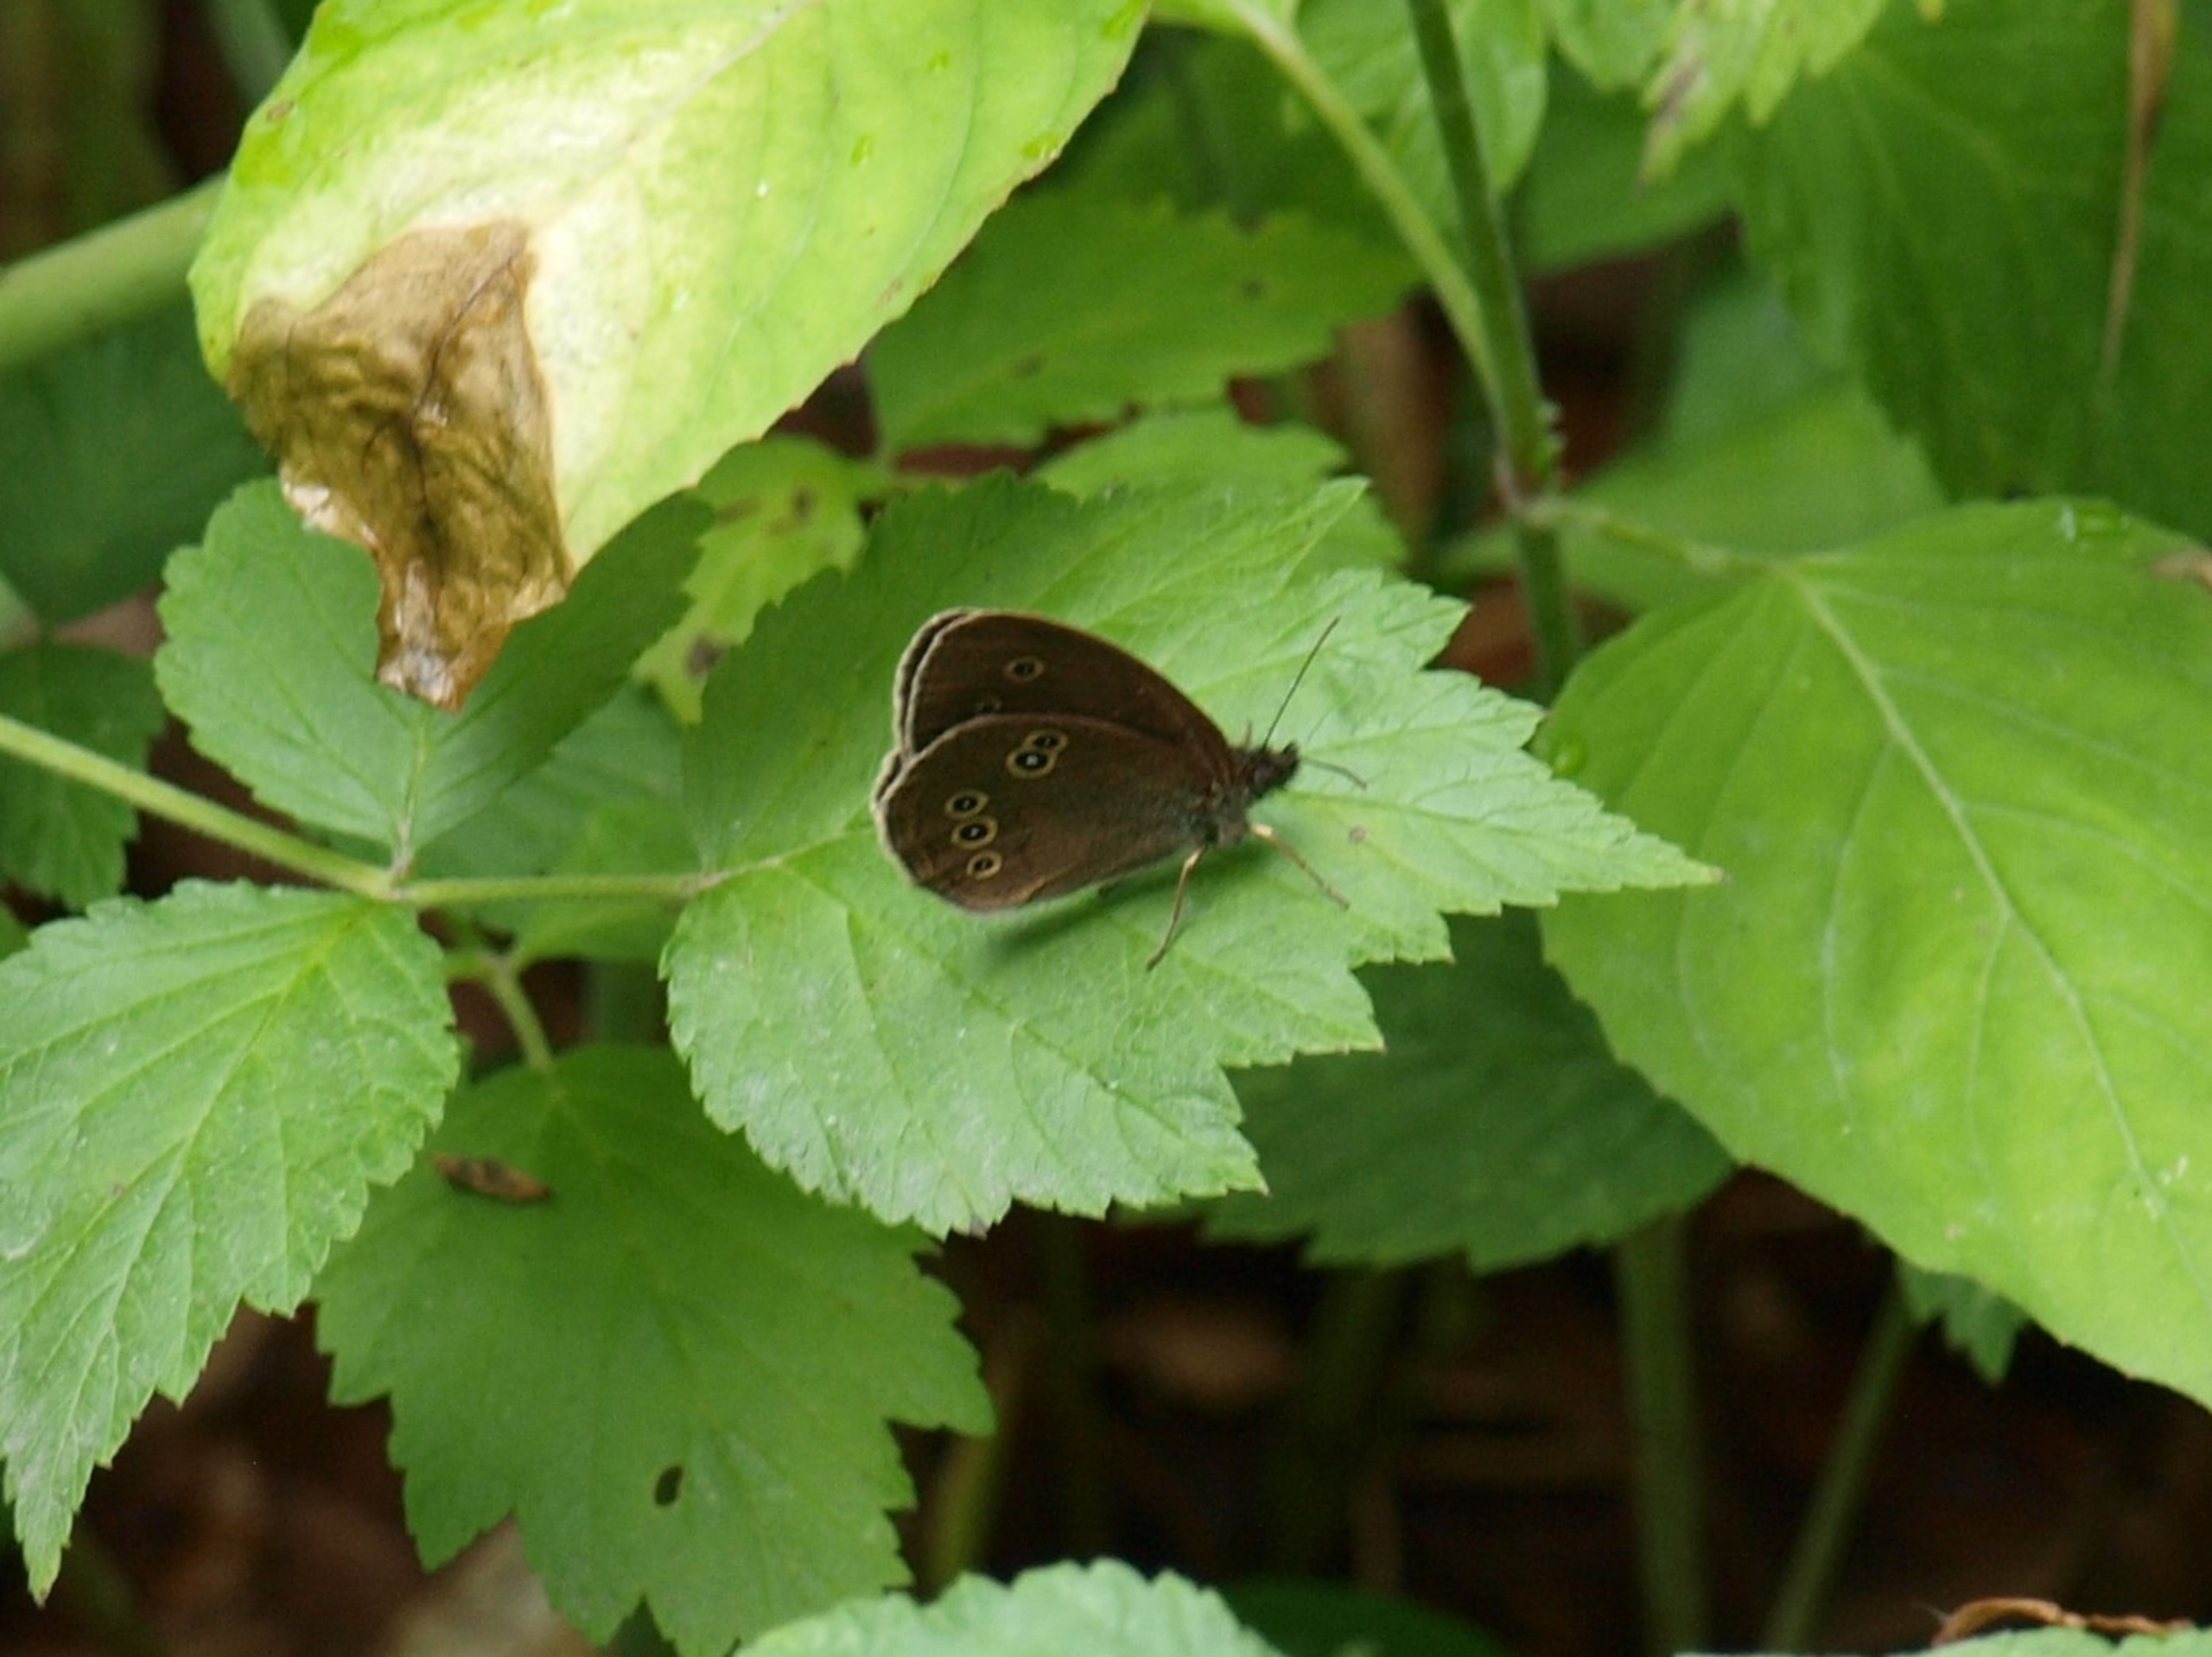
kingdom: Animalia
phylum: Arthropoda
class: Insecta
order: Lepidoptera
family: Nymphalidae
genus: Aphantopus
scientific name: Aphantopus hyperantus
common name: Engrandøje
